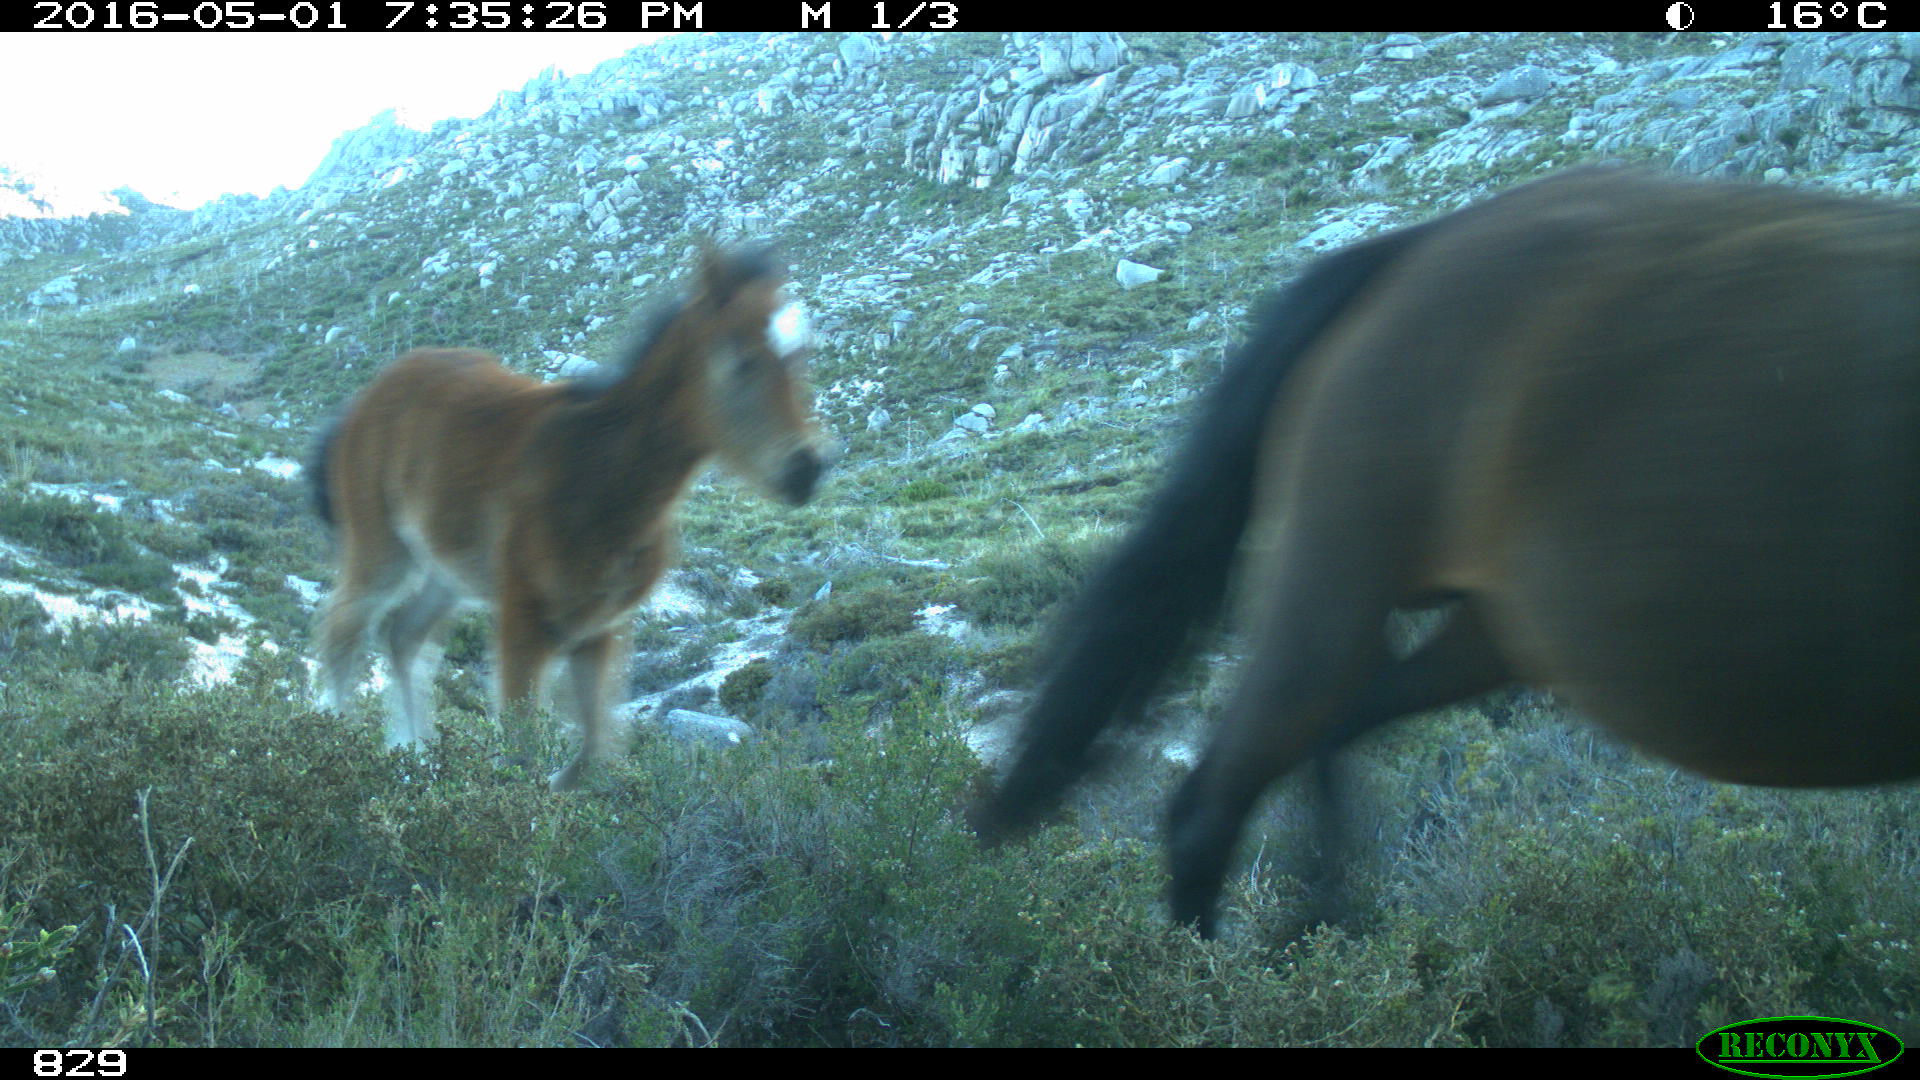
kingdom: Animalia
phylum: Chordata
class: Mammalia
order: Perissodactyla
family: Equidae
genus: Equus
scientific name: Equus caballus
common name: Horse
